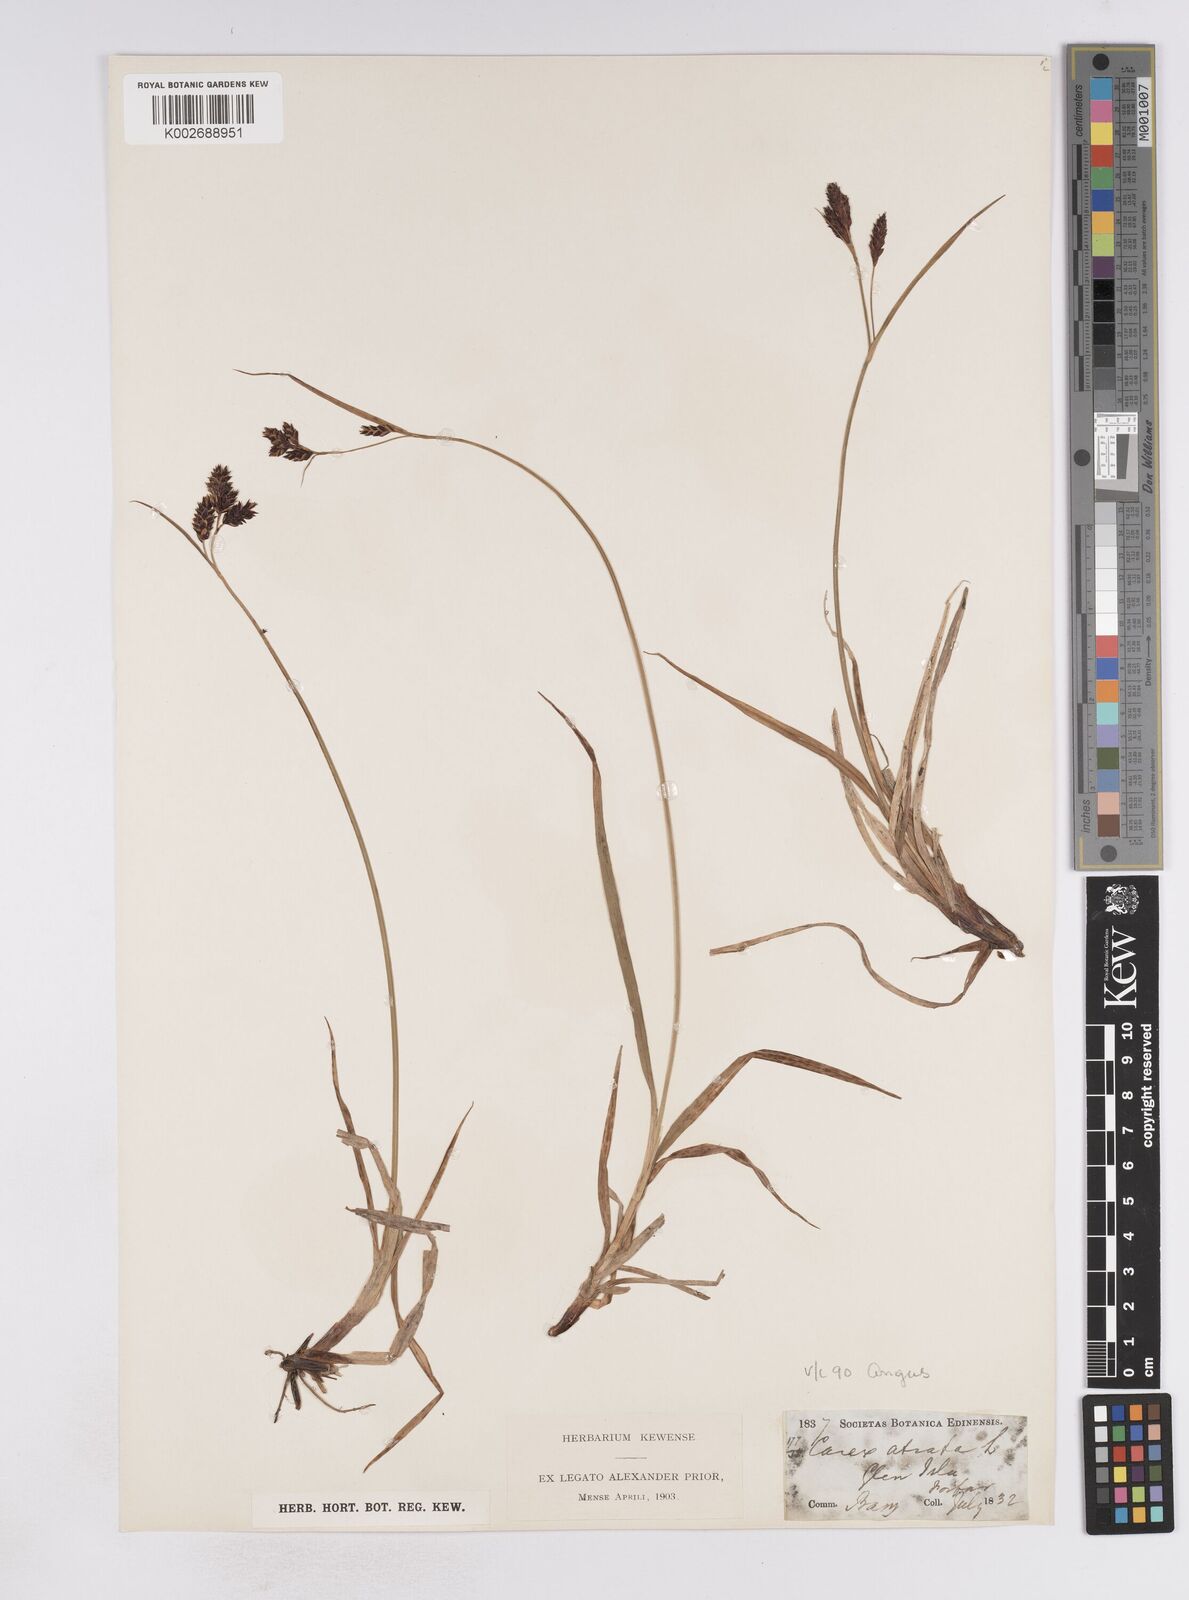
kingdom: Plantae
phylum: Tracheophyta
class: Liliopsida
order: Poales
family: Cyperaceae
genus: Carex
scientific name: Carex atrata
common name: Black alpine sedge
